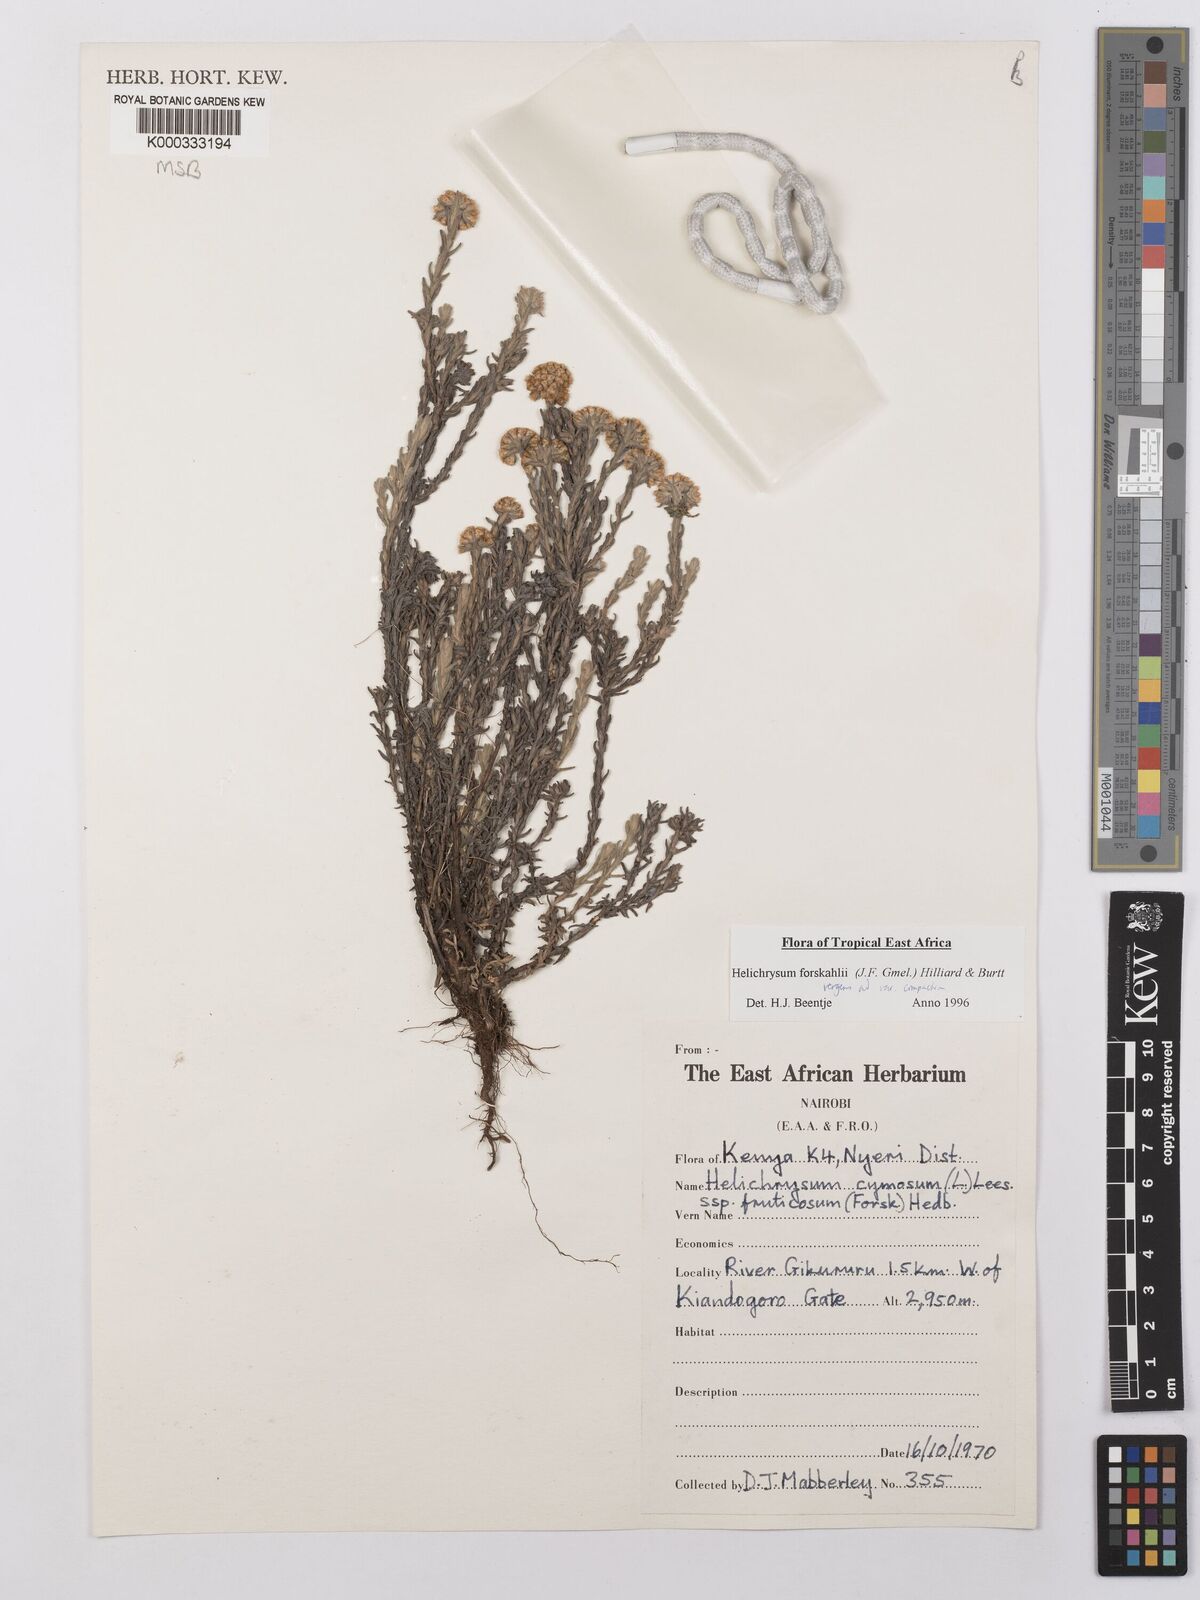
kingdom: Plantae
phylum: Tracheophyta
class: Magnoliopsida
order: Asterales
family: Asteraceae
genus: Helichrysum
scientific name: Helichrysum forskahlii
